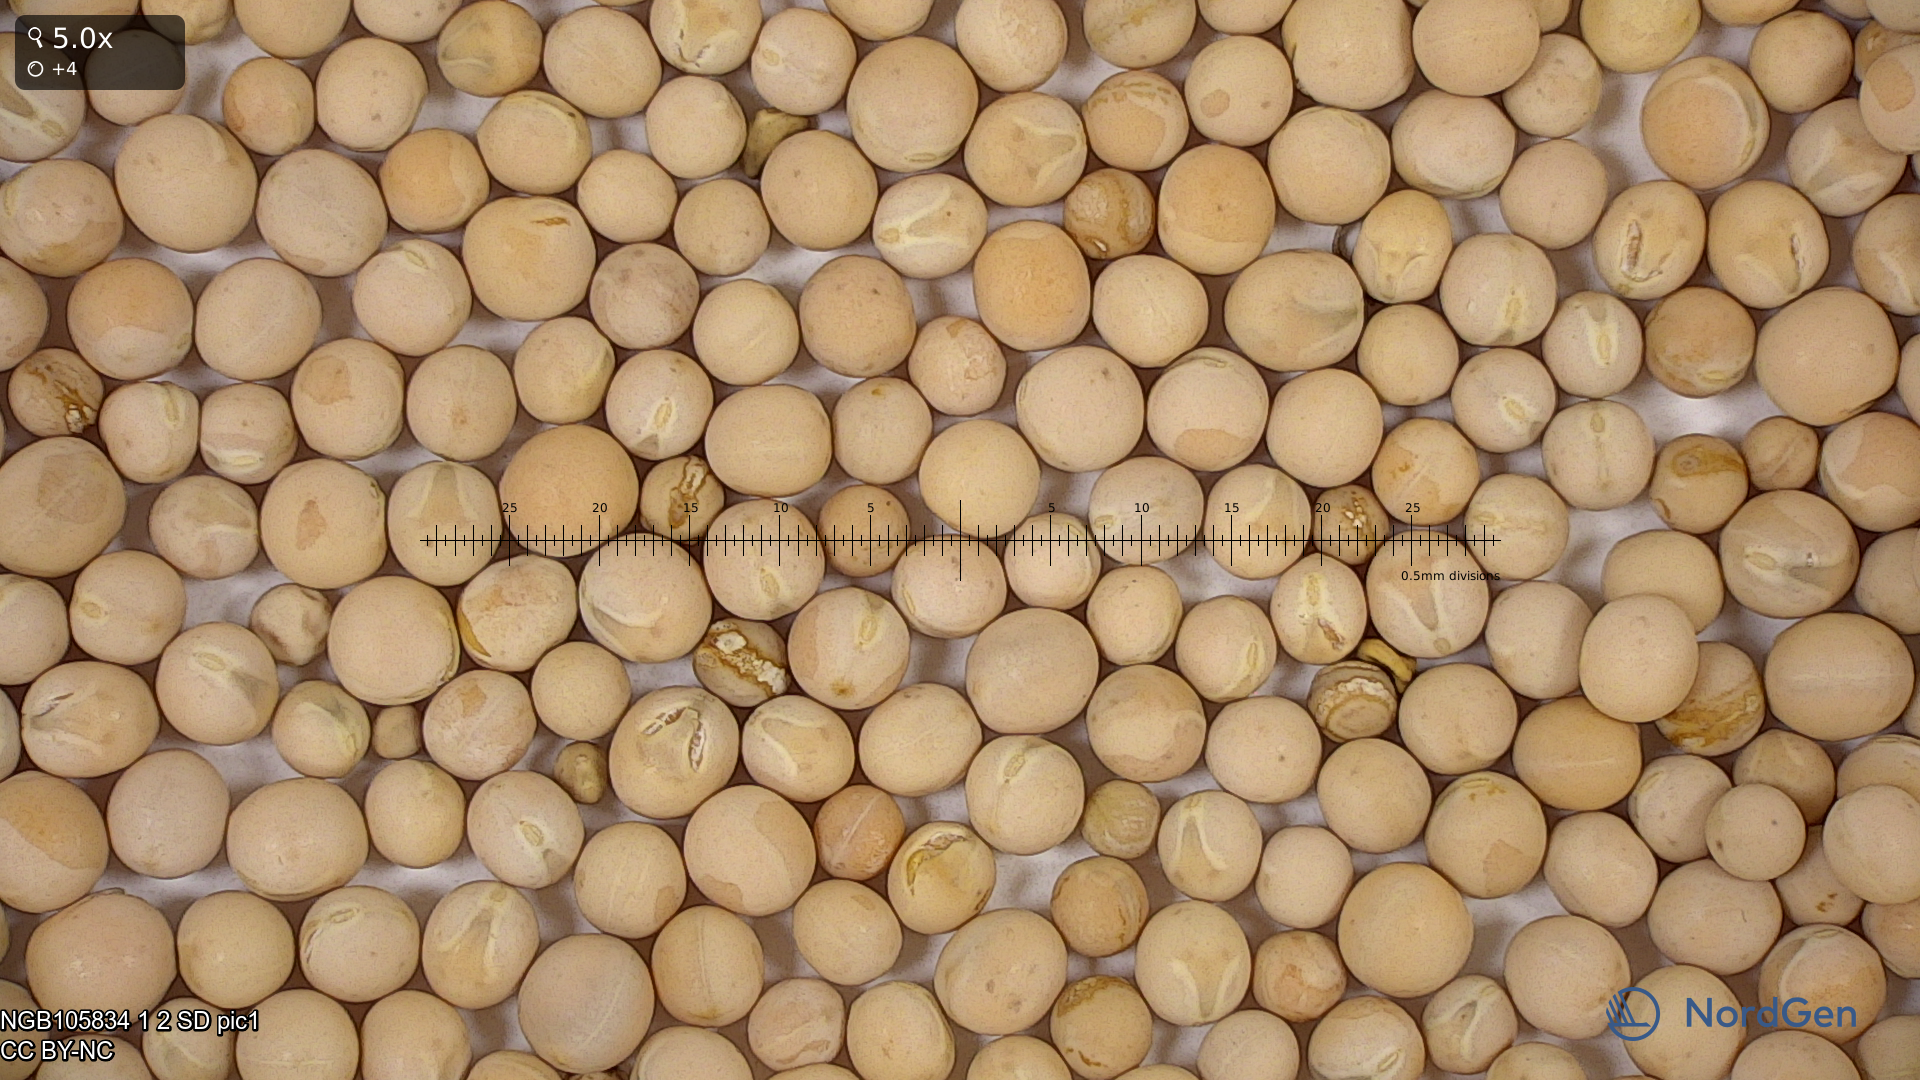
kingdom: Plantae
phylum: Tracheophyta
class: Magnoliopsida
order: Fabales
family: Fabaceae
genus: Lathyrus
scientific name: Lathyrus oleraceus
